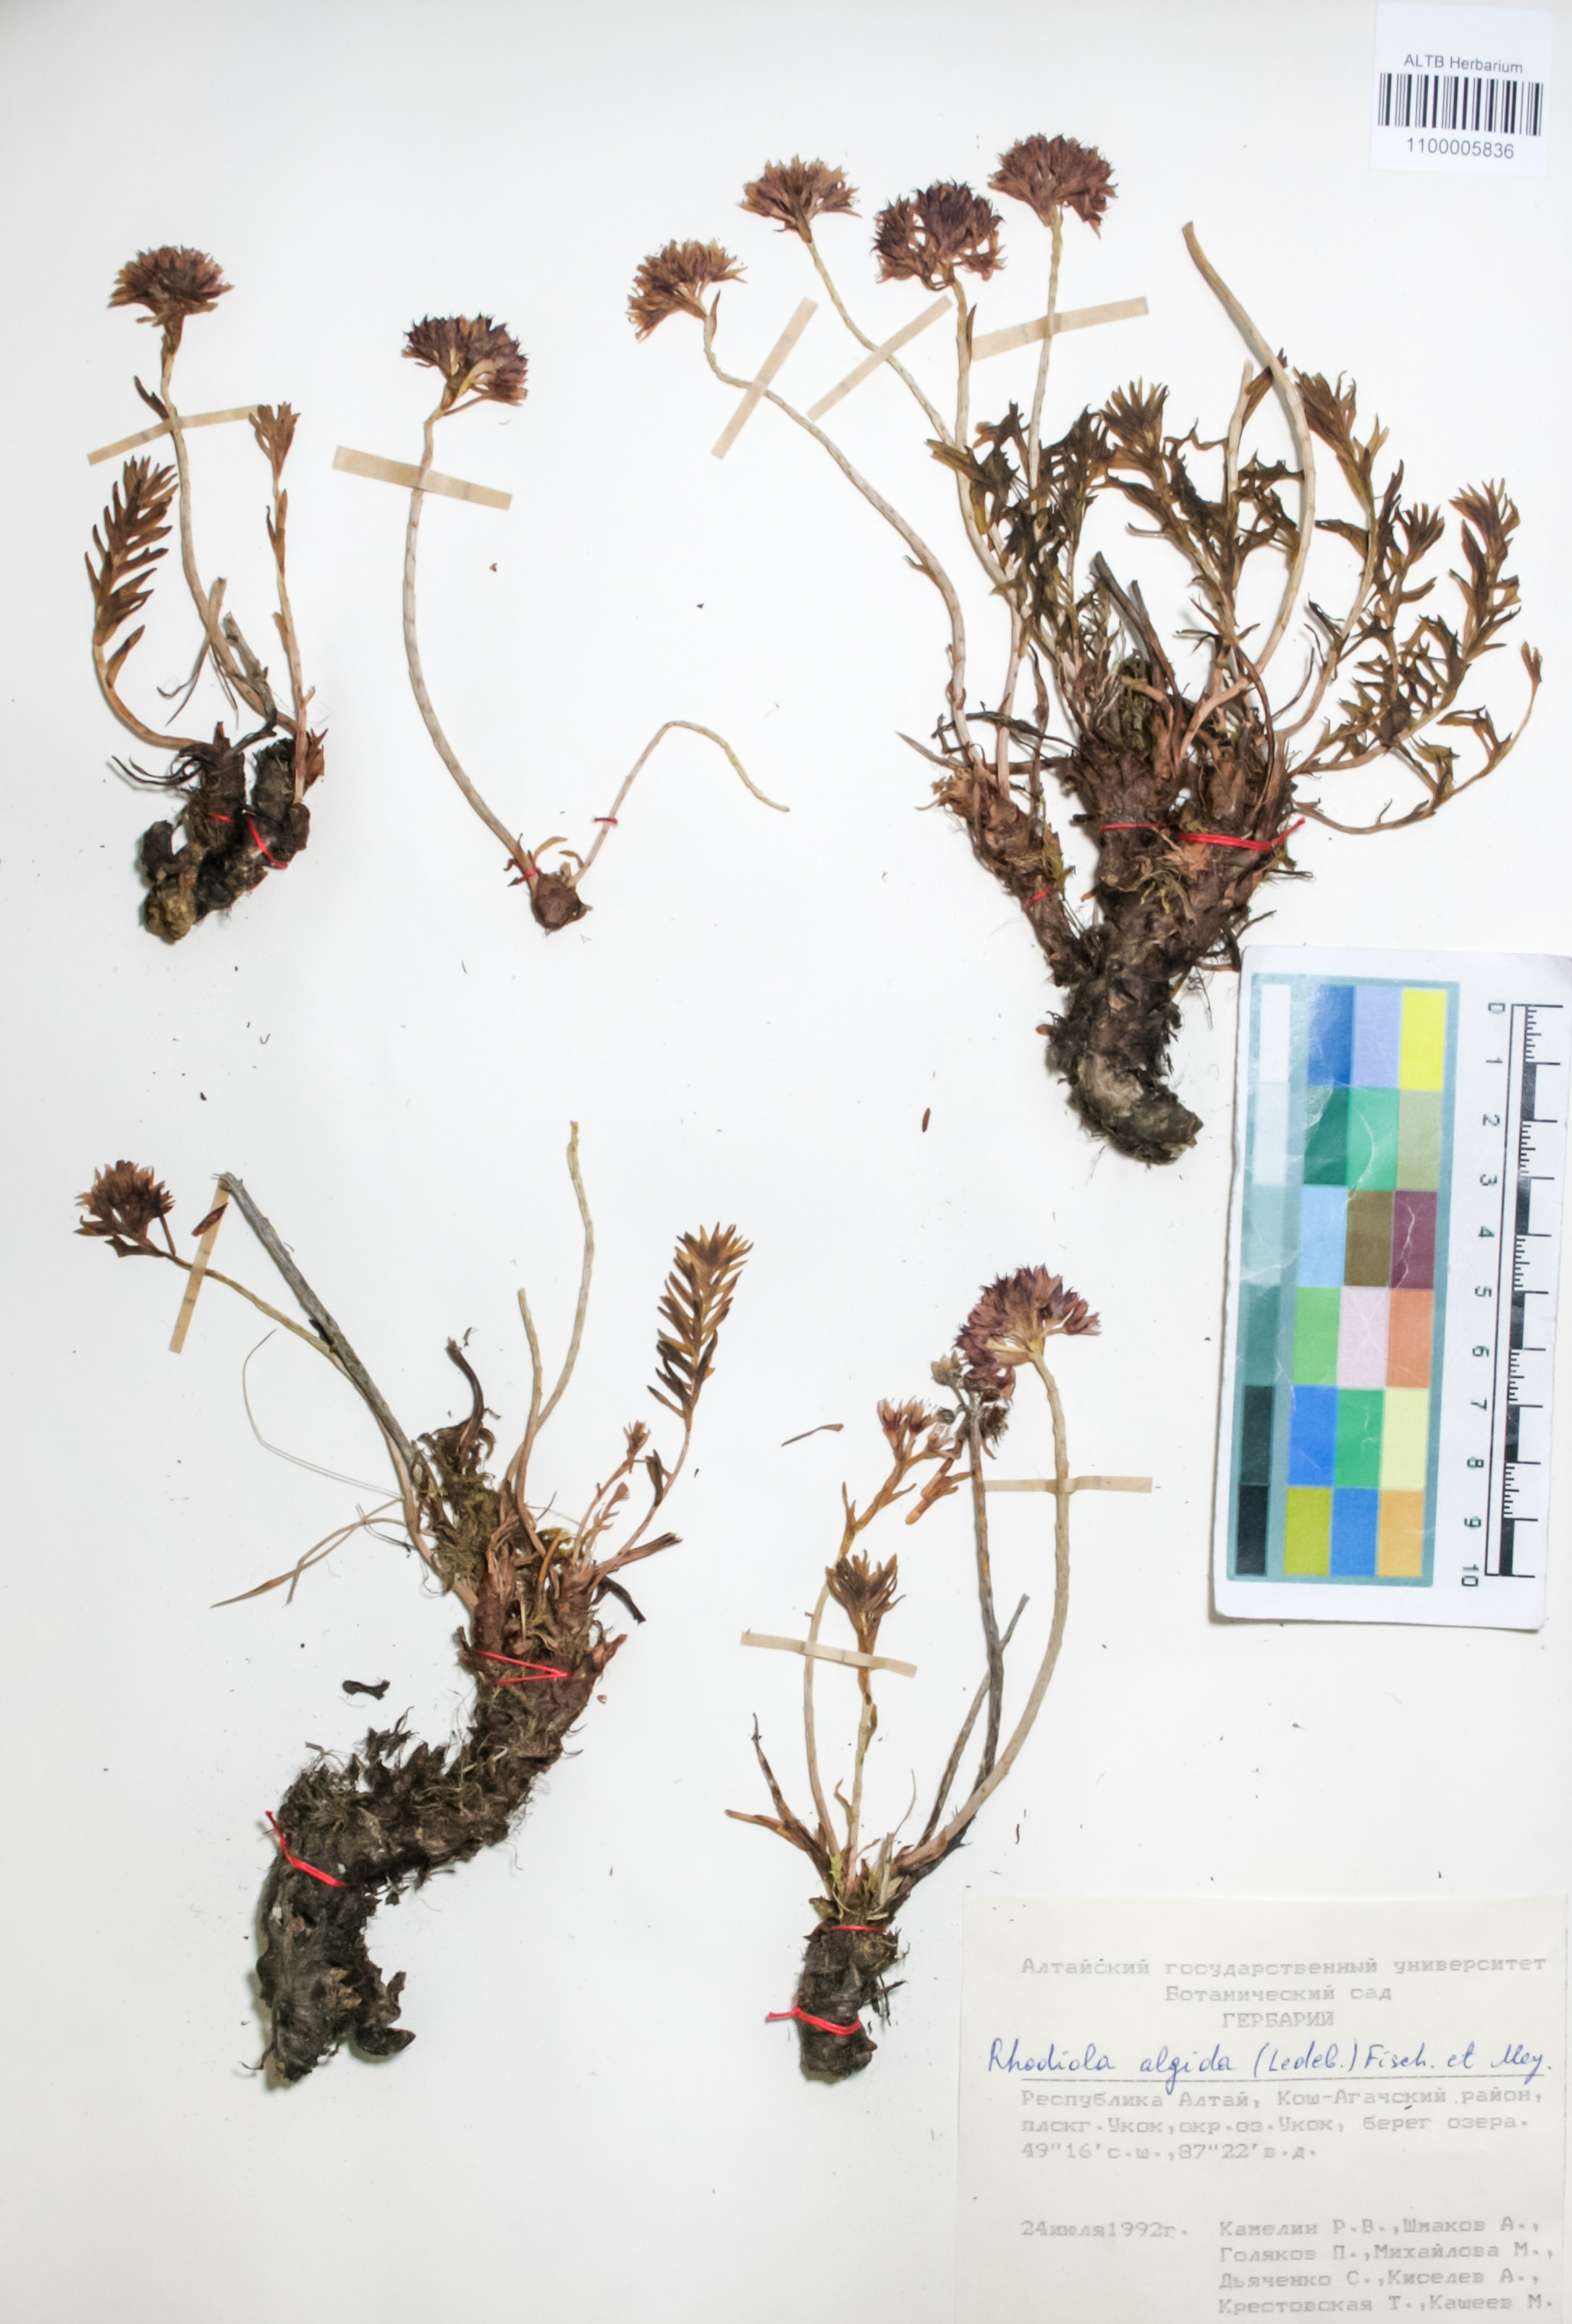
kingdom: Plantae
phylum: Tracheophyta
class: Magnoliopsida
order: Saxifragales
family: Crassulaceae
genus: Rhodiola
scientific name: Rhodiola algida
